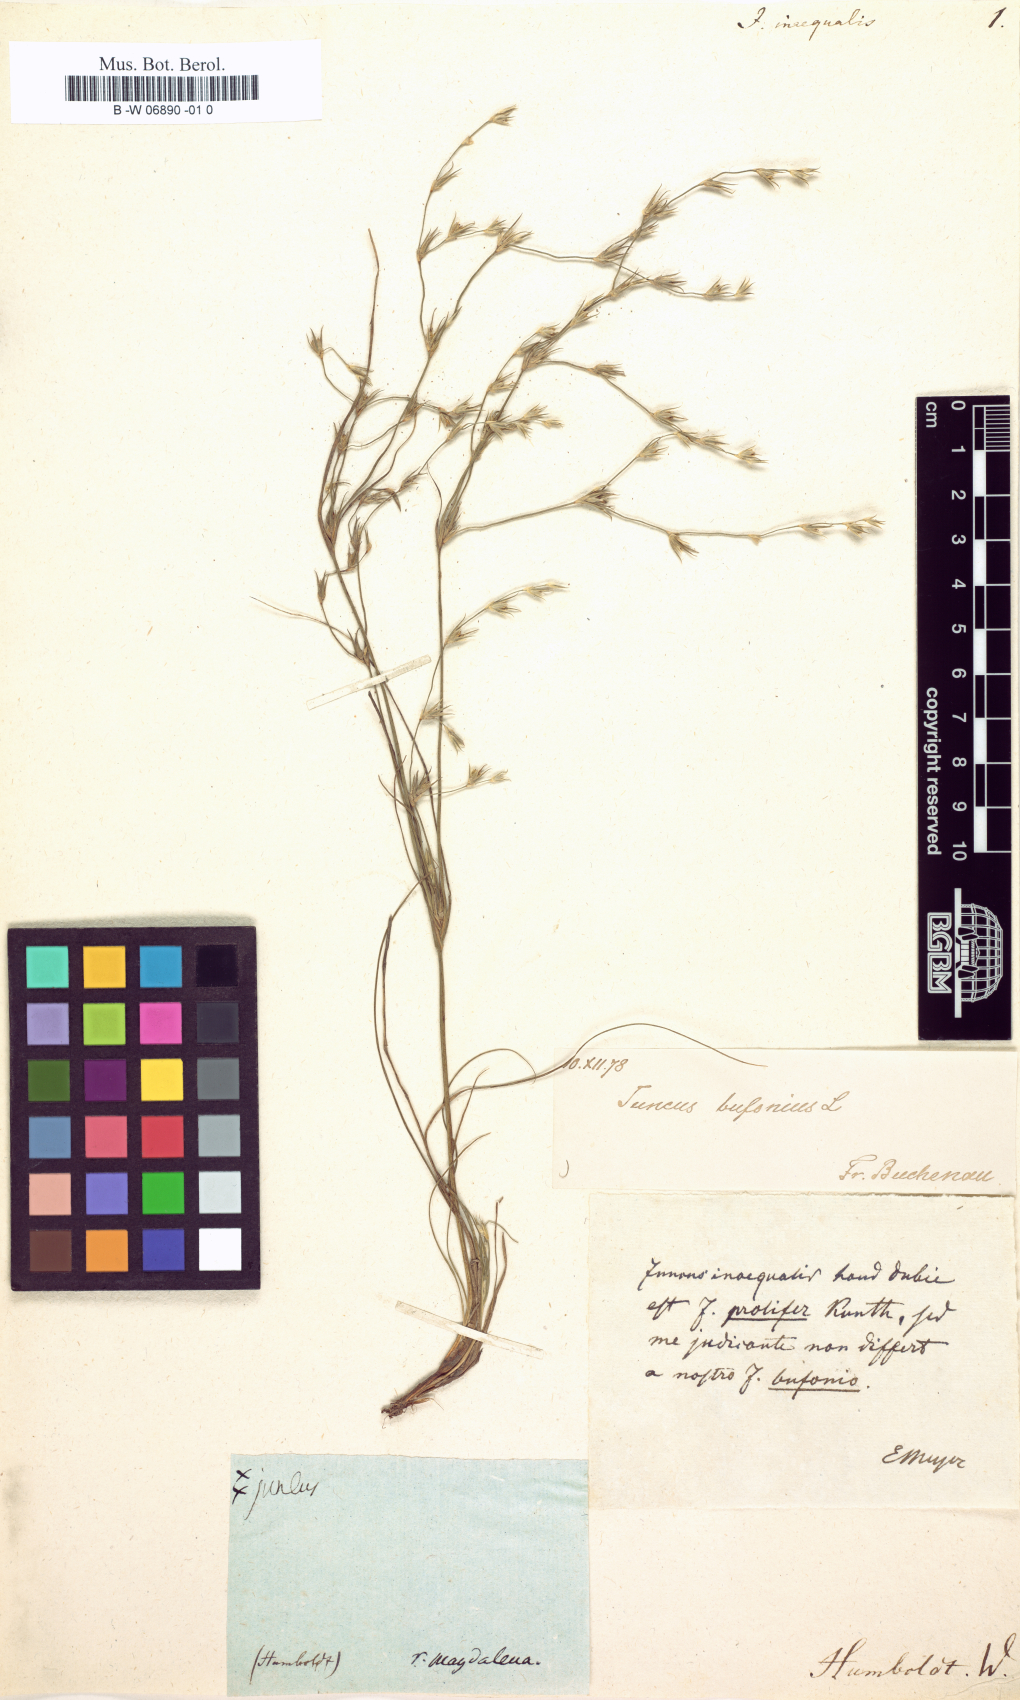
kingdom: Plantae
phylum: Tracheophyta
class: Liliopsida
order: Poales
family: Juncaceae
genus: Juncus
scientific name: Juncus
